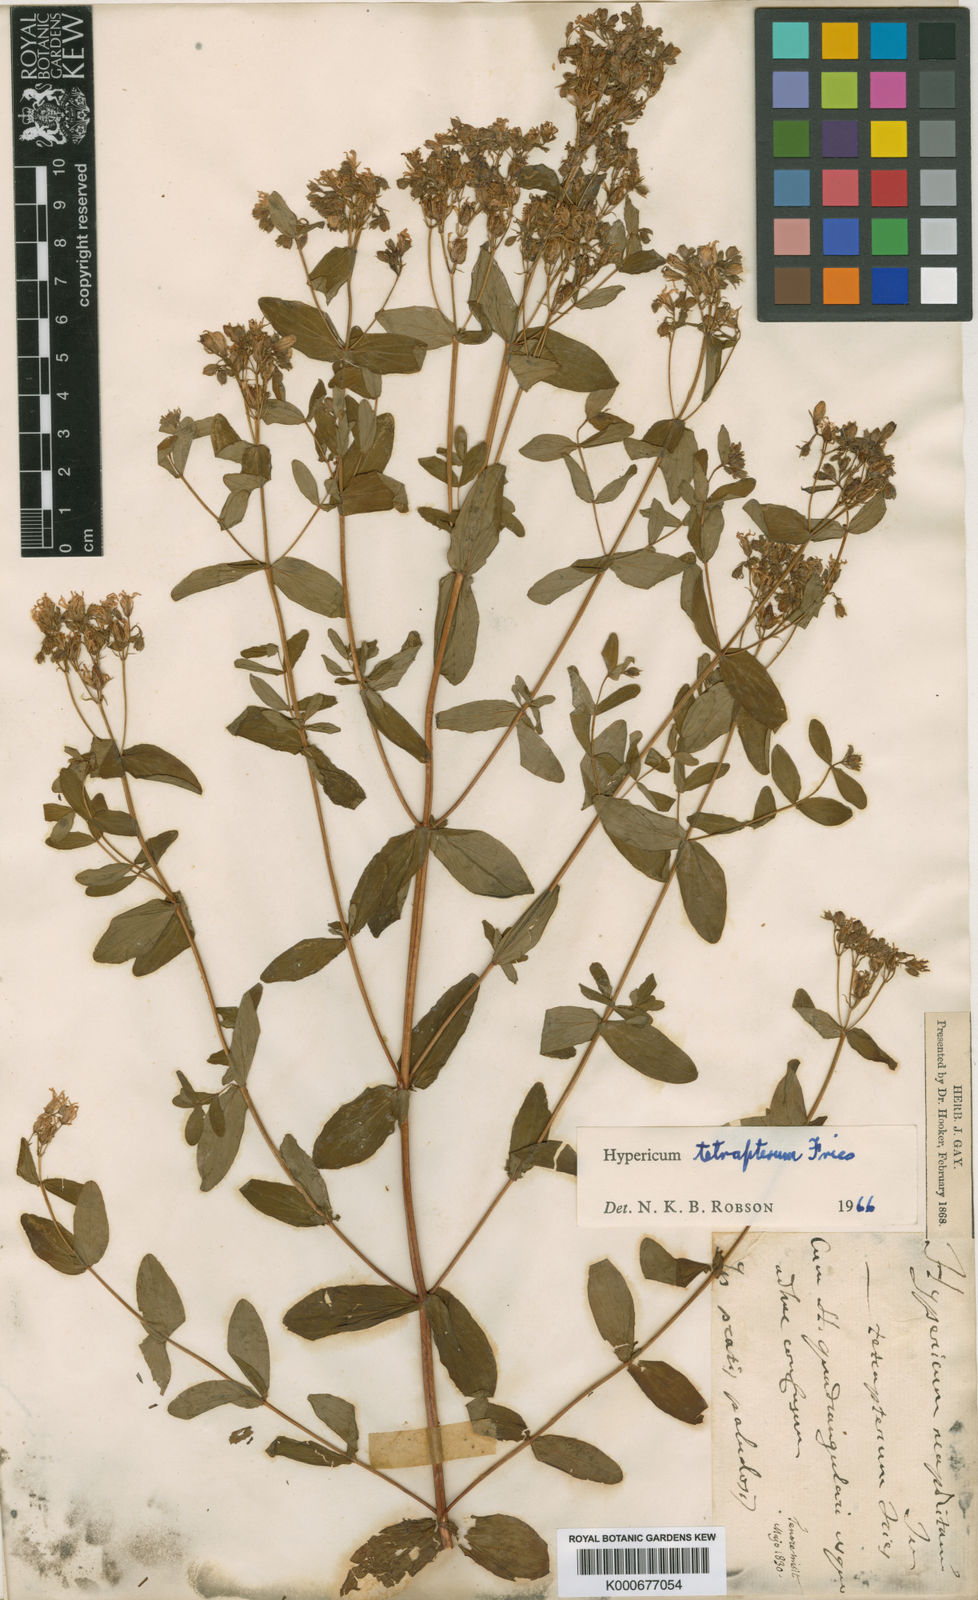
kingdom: Plantae
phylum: Tracheophyta
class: Magnoliopsida
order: Malpighiales
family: Hypericaceae
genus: Hypericum
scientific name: Hypericum tetrapterum
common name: Square-stalked st. john's-wort
